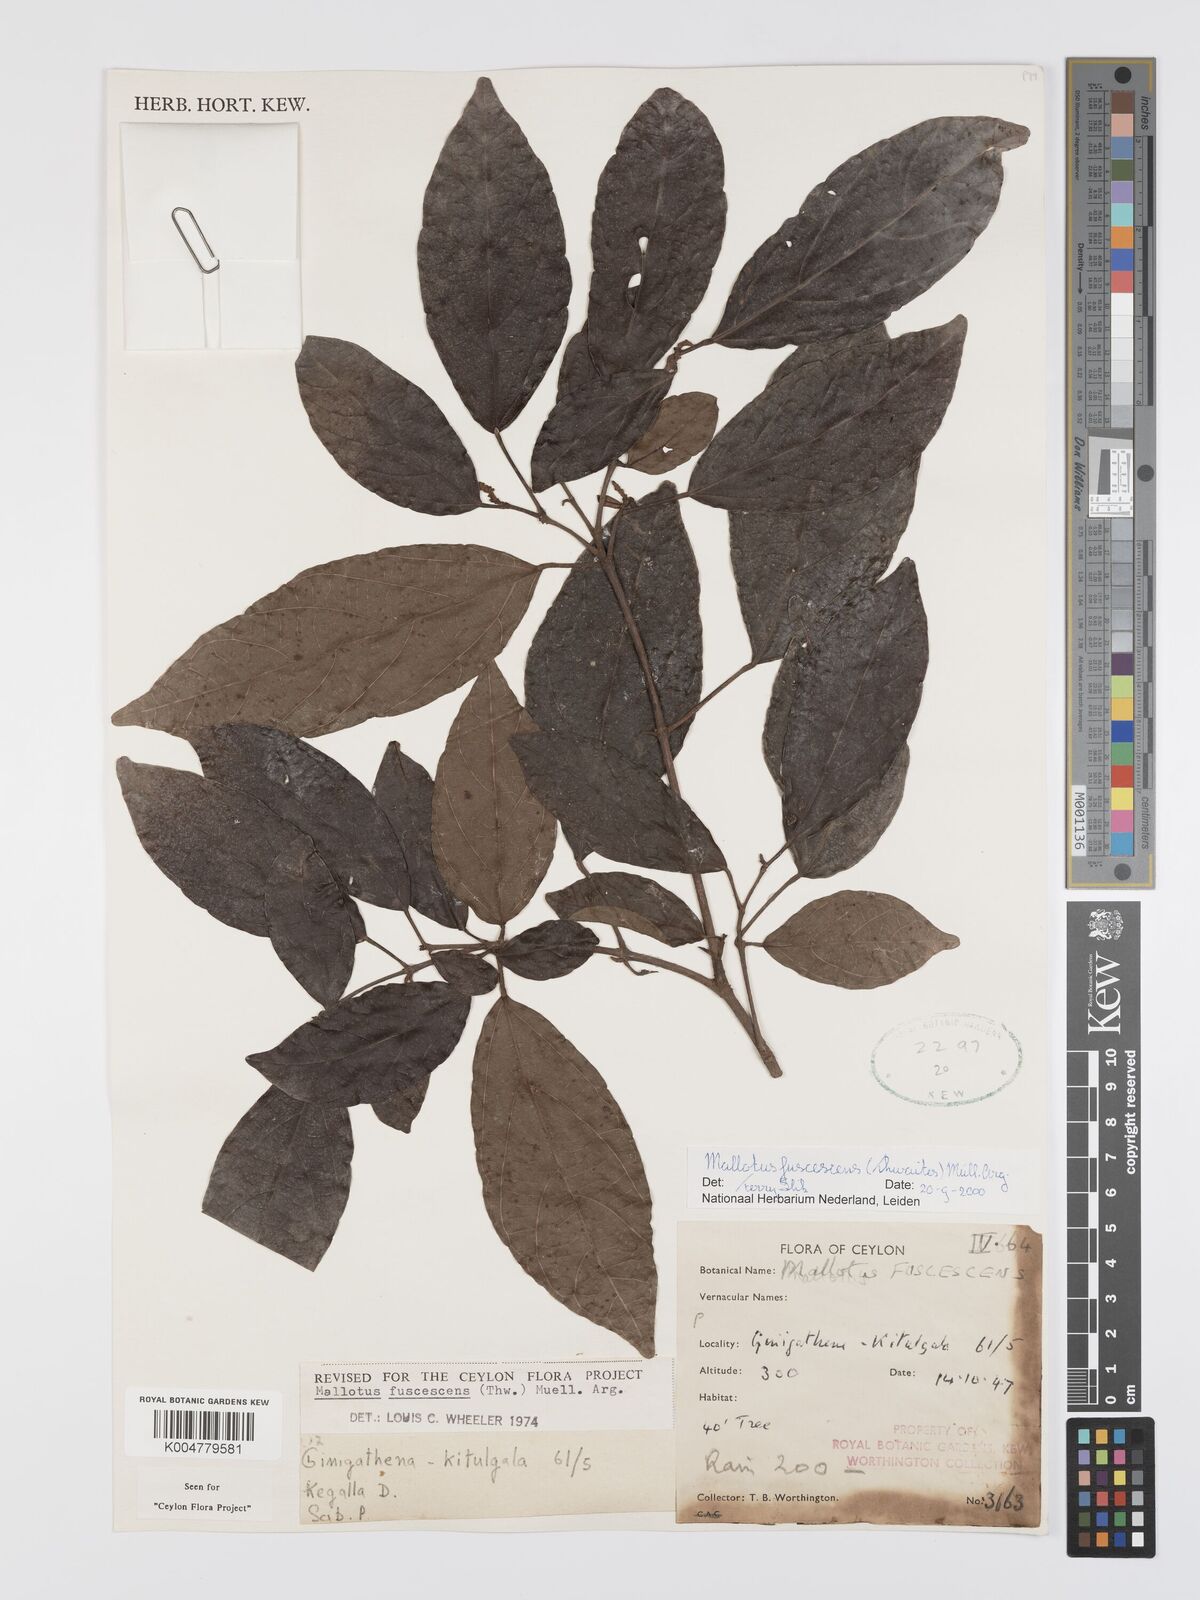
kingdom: Plantae
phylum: Tracheophyta
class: Magnoliopsida
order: Malpighiales
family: Euphorbiaceae
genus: Mallotus
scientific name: Mallotus fuscescens
